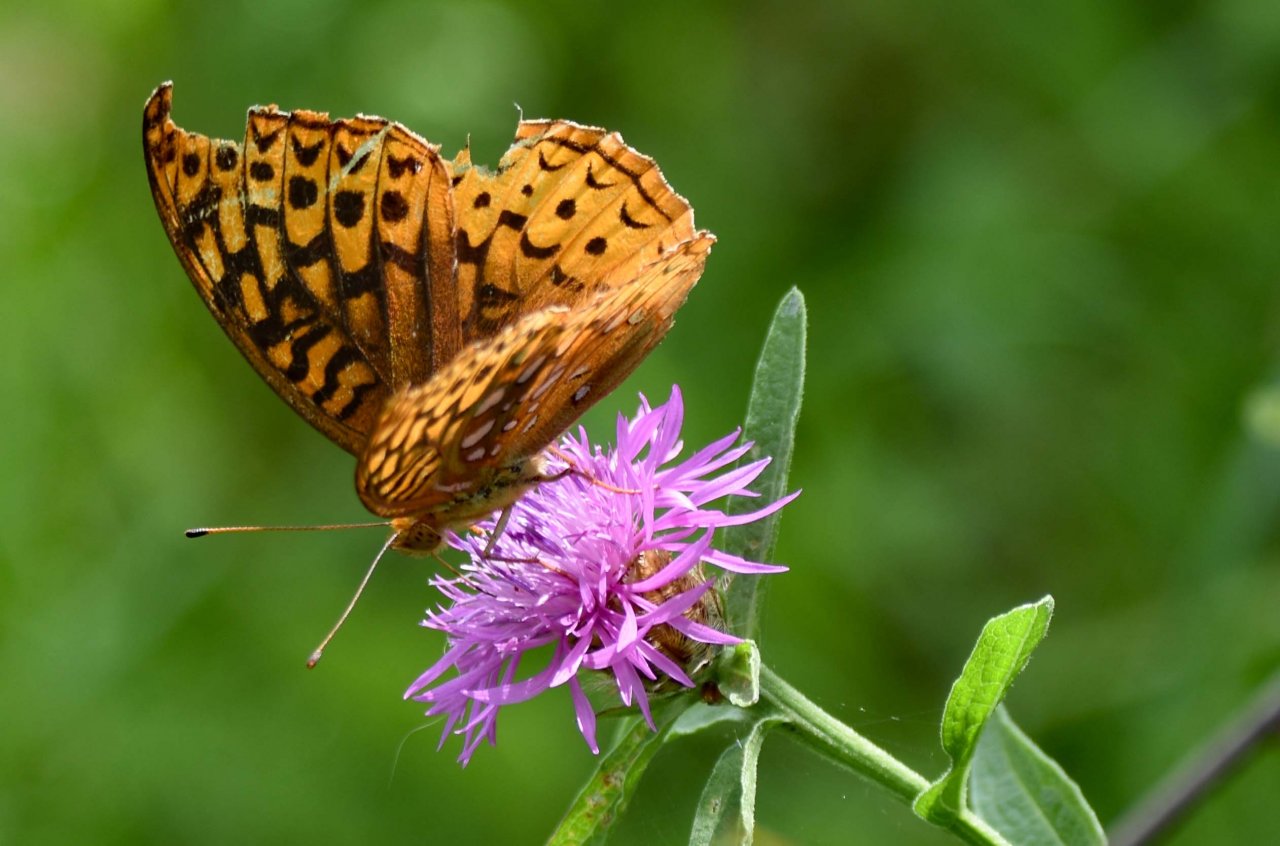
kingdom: Animalia
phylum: Arthropoda
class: Insecta
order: Lepidoptera
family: Nymphalidae
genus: Speyeria
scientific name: Speyeria cybele
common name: Great Spangled Fritillary
